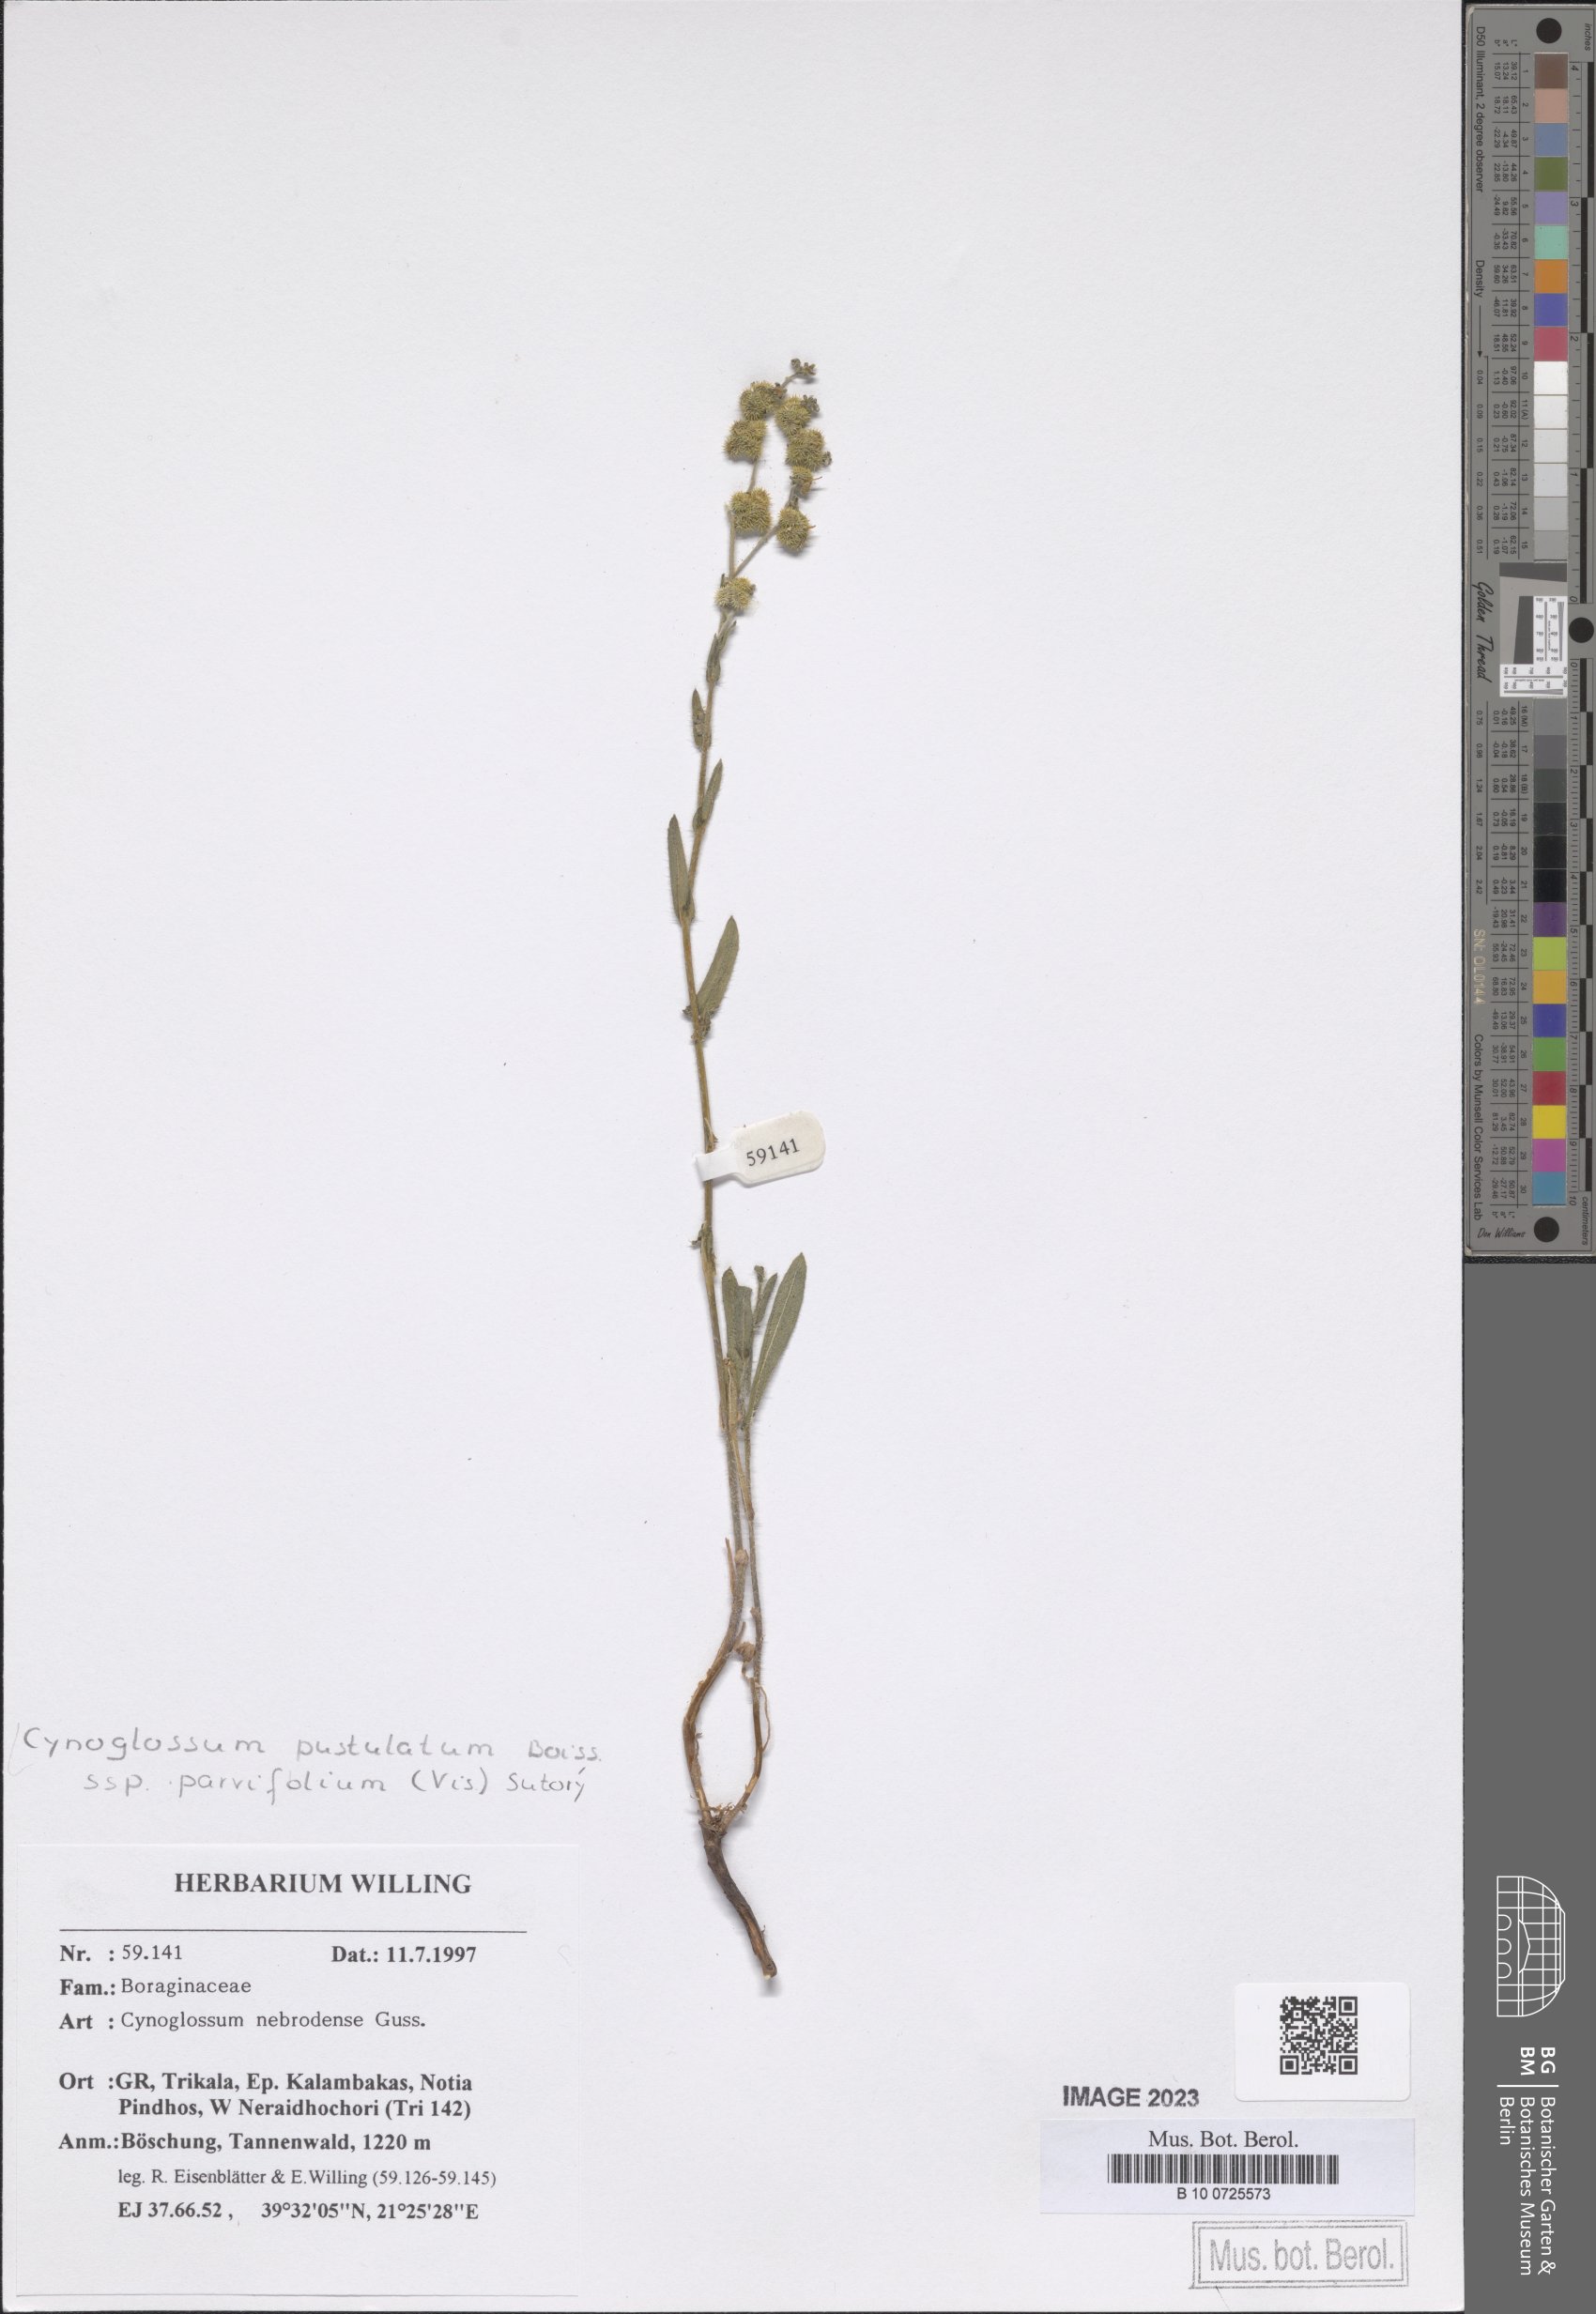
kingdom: Plantae
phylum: Tracheophyta
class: Magnoliopsida
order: Boraginales
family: Boraginaceae
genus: Cynoglossum
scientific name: Cynoglossum pustulatum
